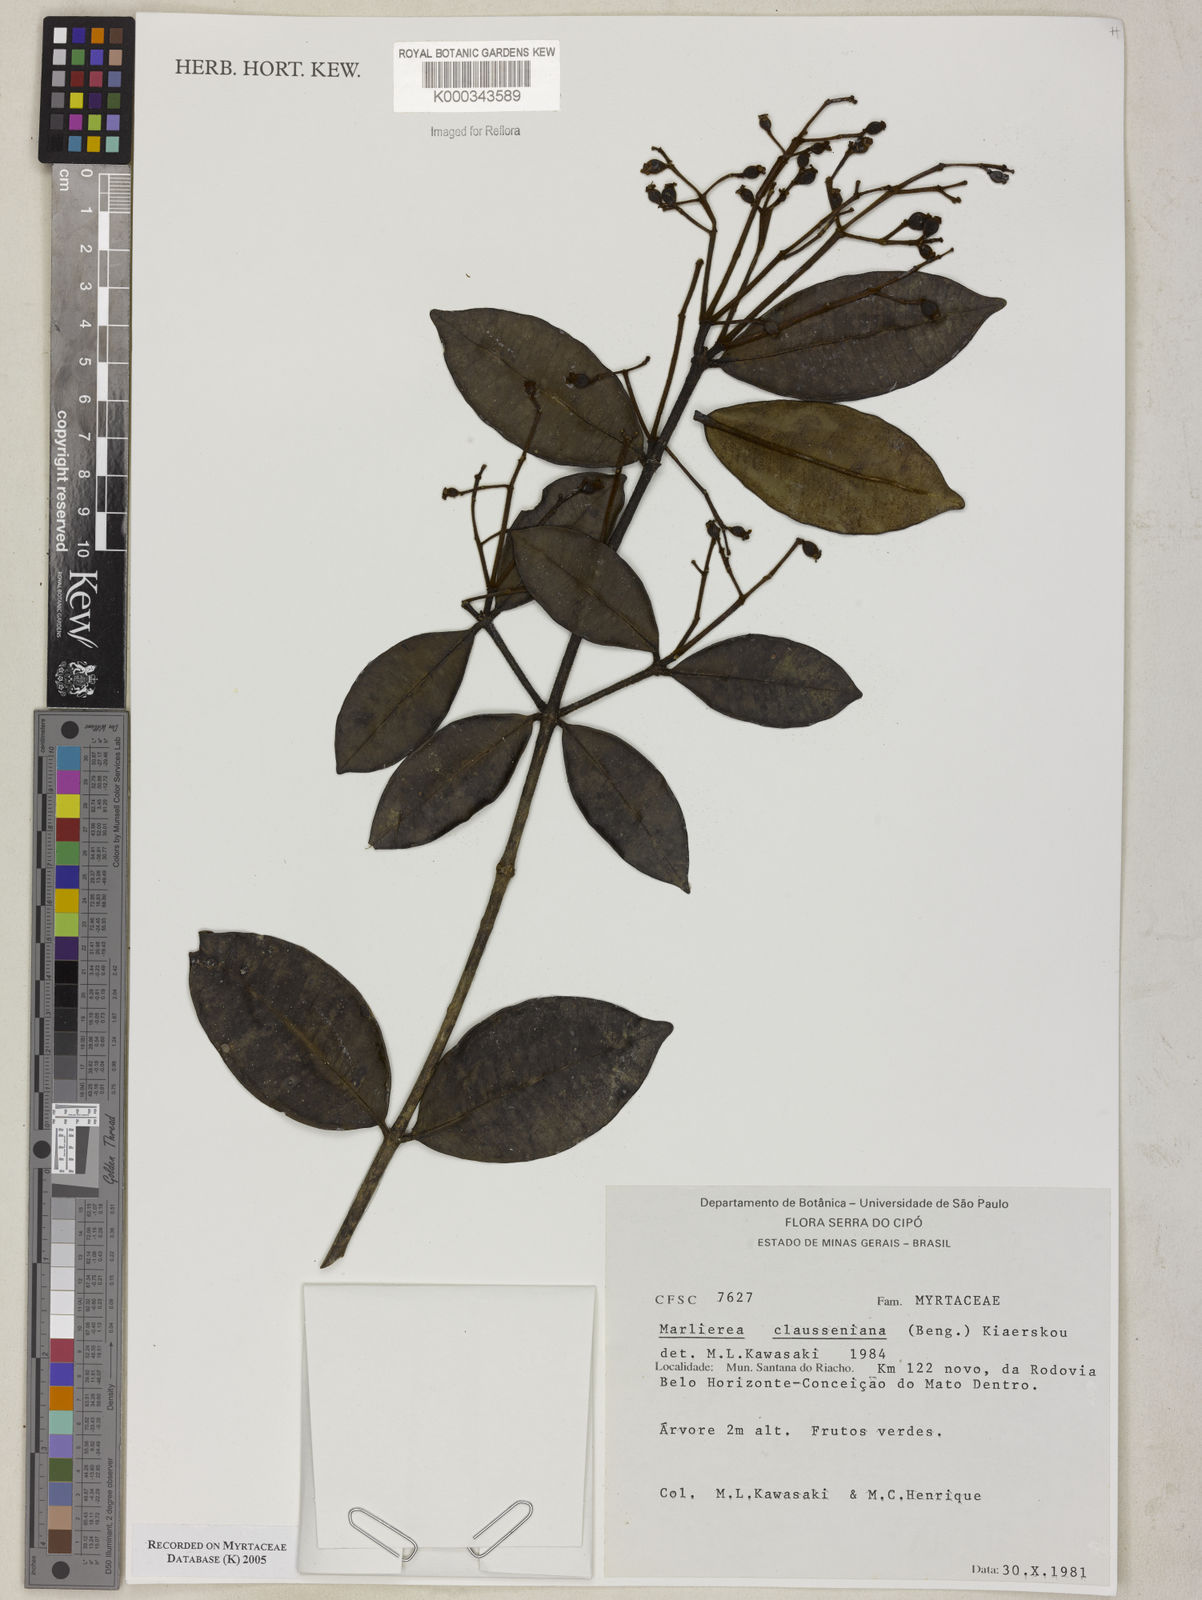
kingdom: Plantae
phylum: Tracheophyta
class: Magnoliopsida
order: Myrtales
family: Myrtaceae
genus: Marlierea
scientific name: Marlierea clausseniana
